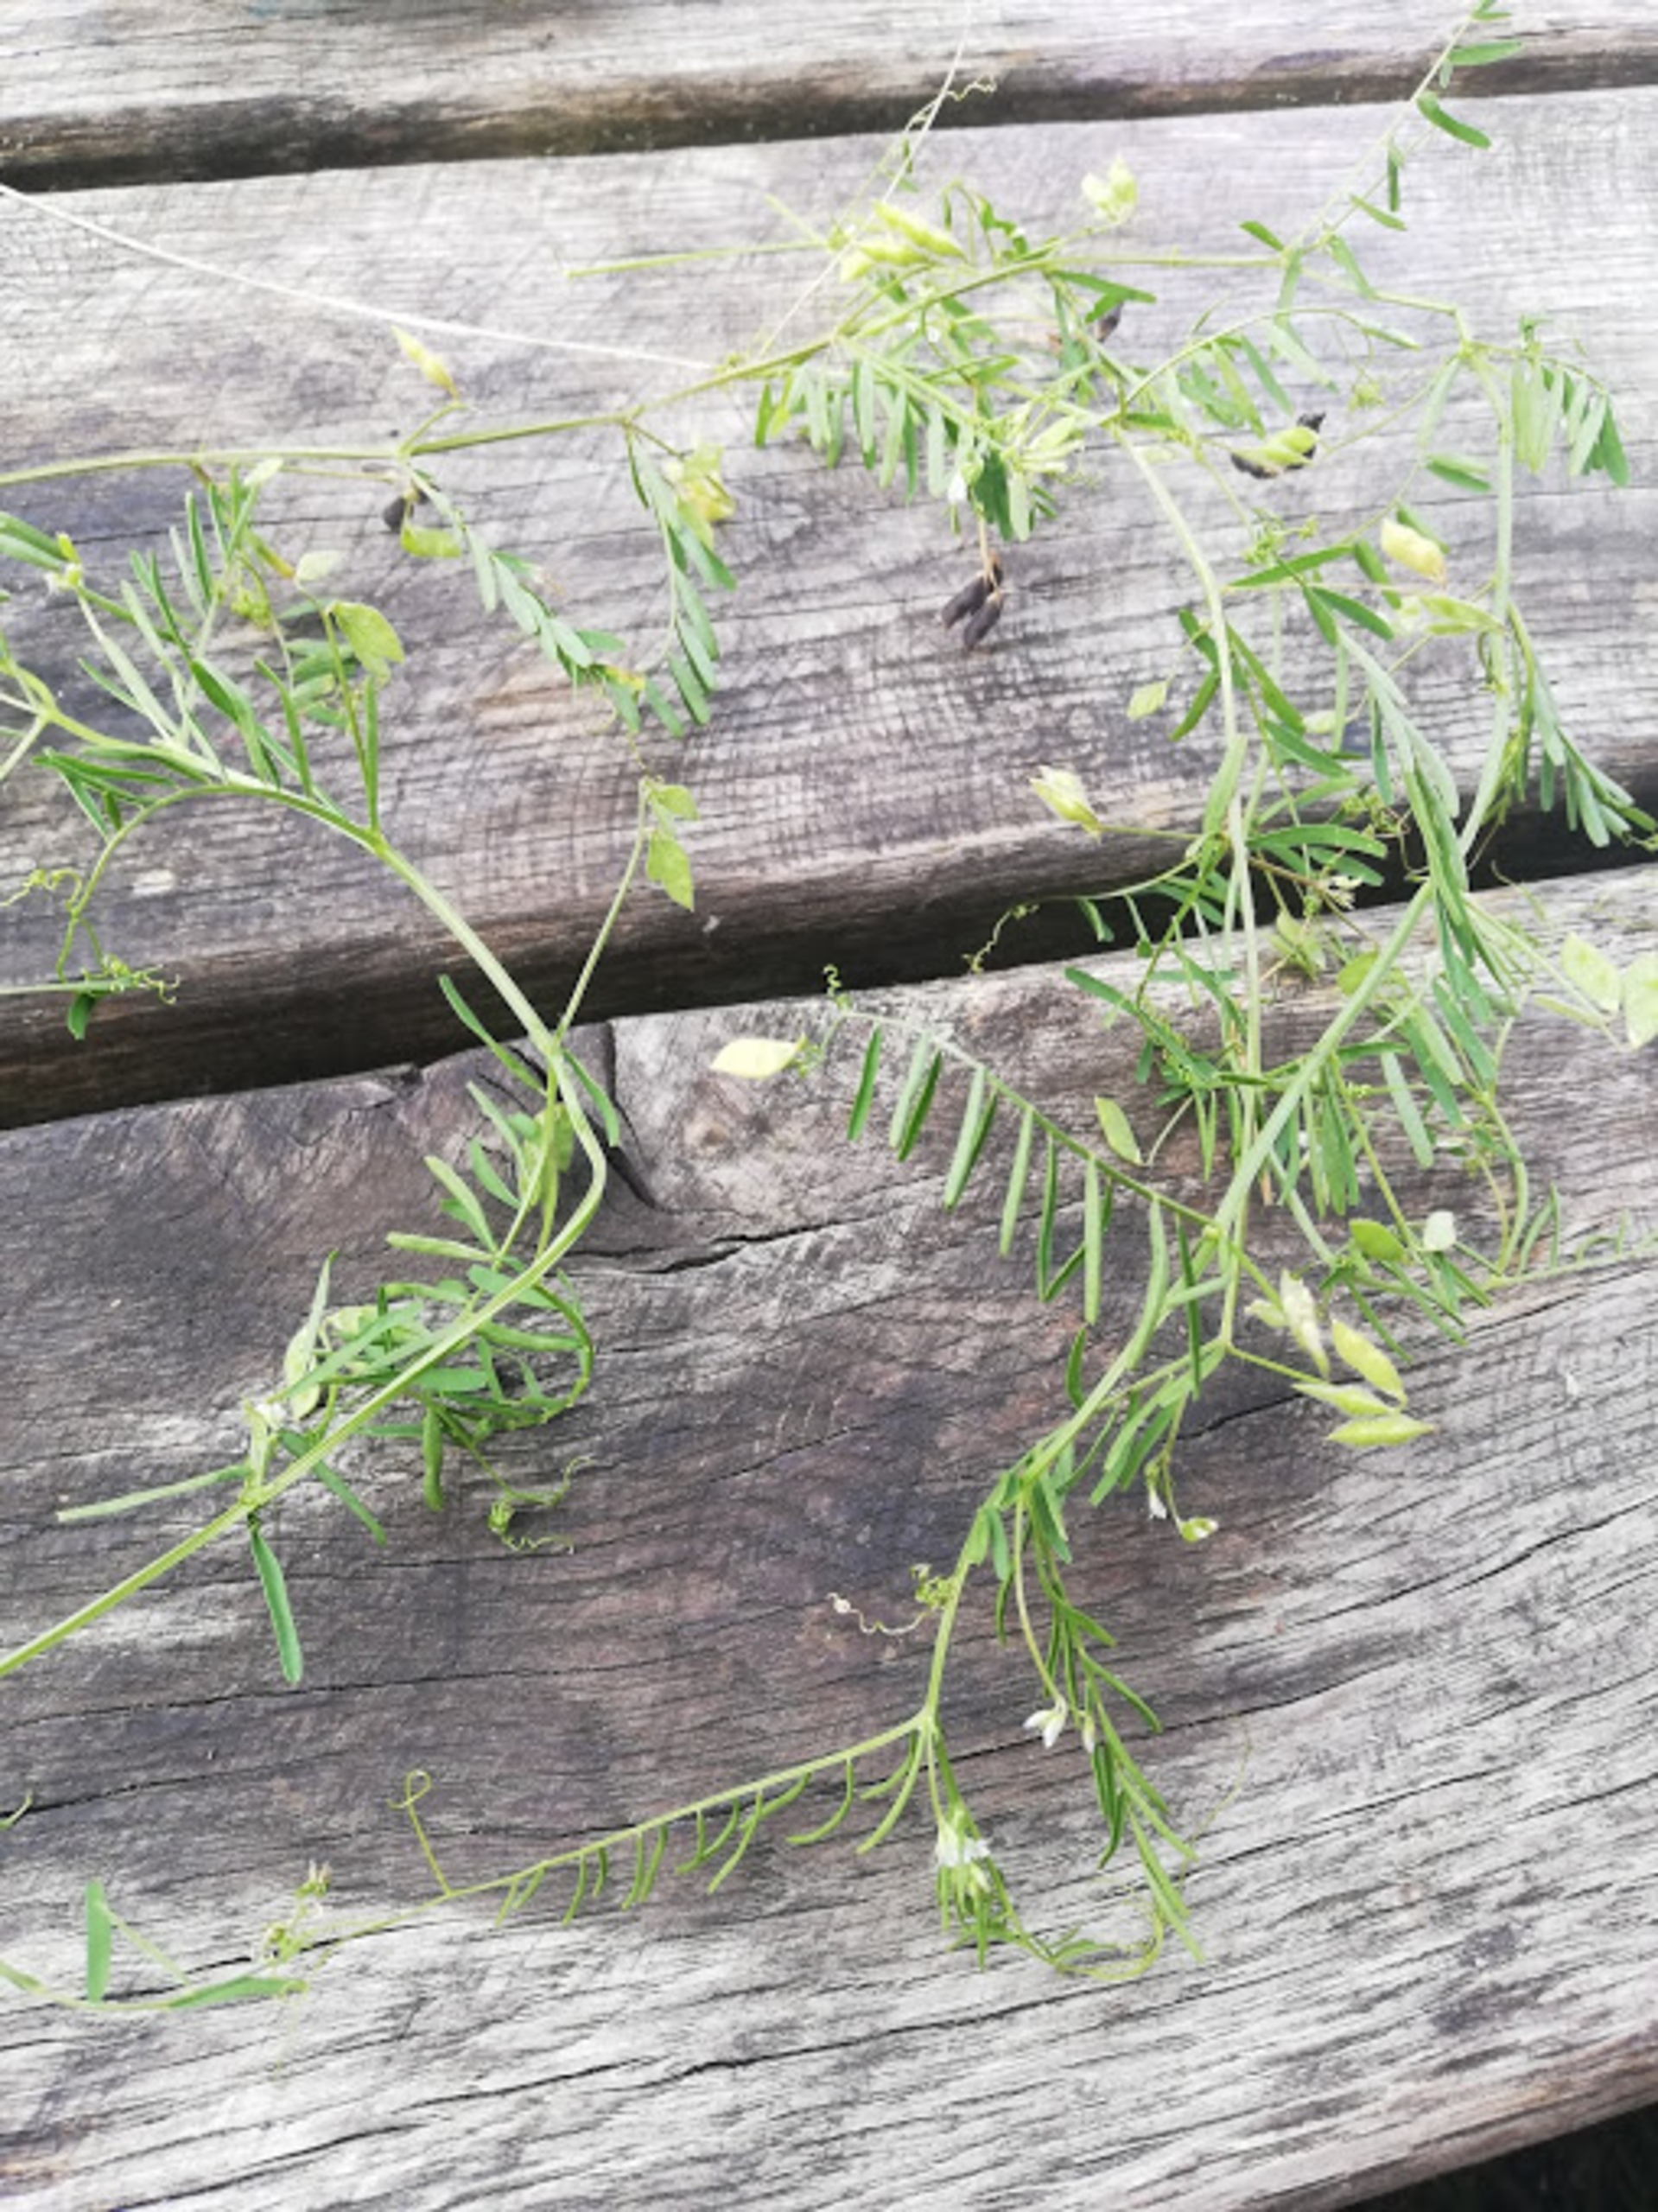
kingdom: Plantae
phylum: Tracheophyta
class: Magnoliopsida
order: Fabales
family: Fabaceae
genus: Vicia
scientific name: Vicia hirsuta
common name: Tofrøet vikke
